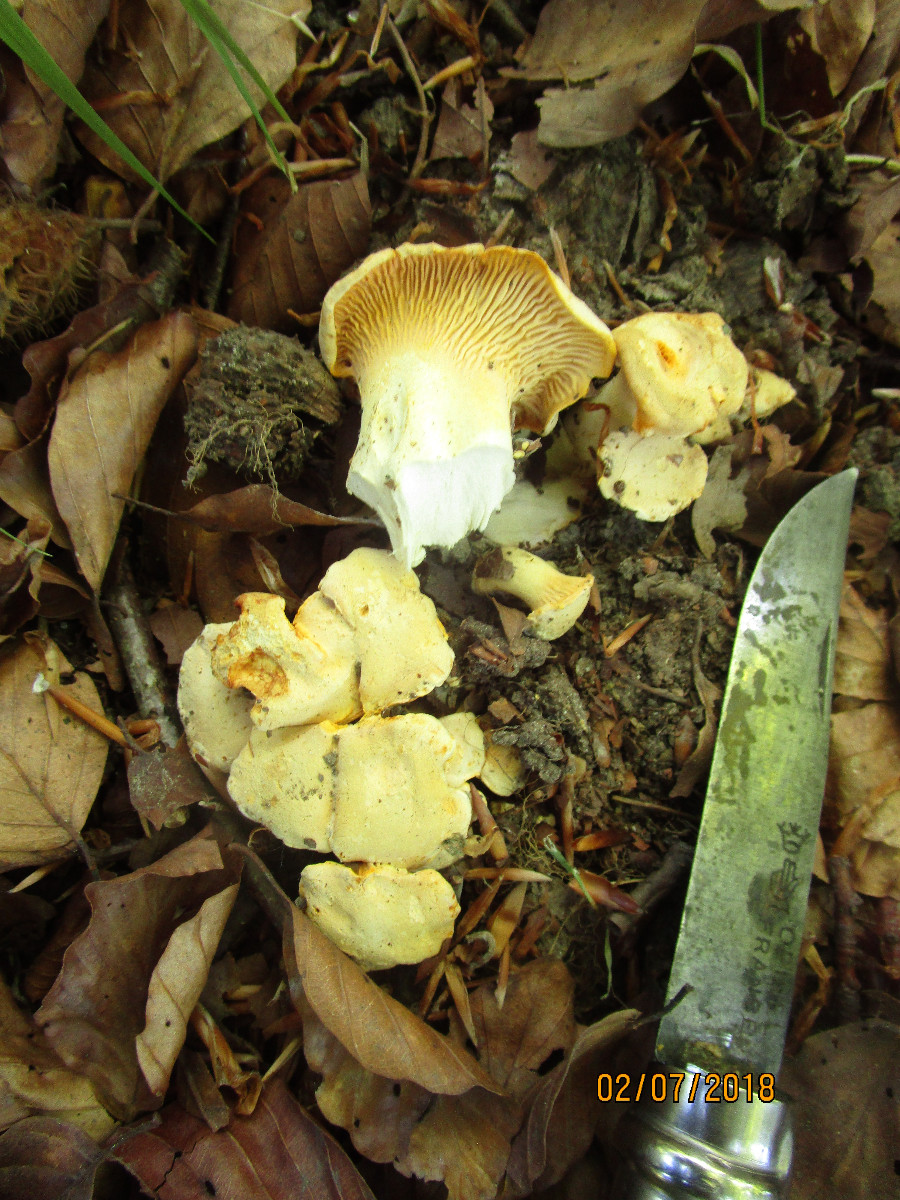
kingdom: Fungi
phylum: Basidiomycota
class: Agaricomycetes
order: Cantharellales
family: Hydnaceae
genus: Cantharellus
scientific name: Cantharellus pallens
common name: bleg kantarel
